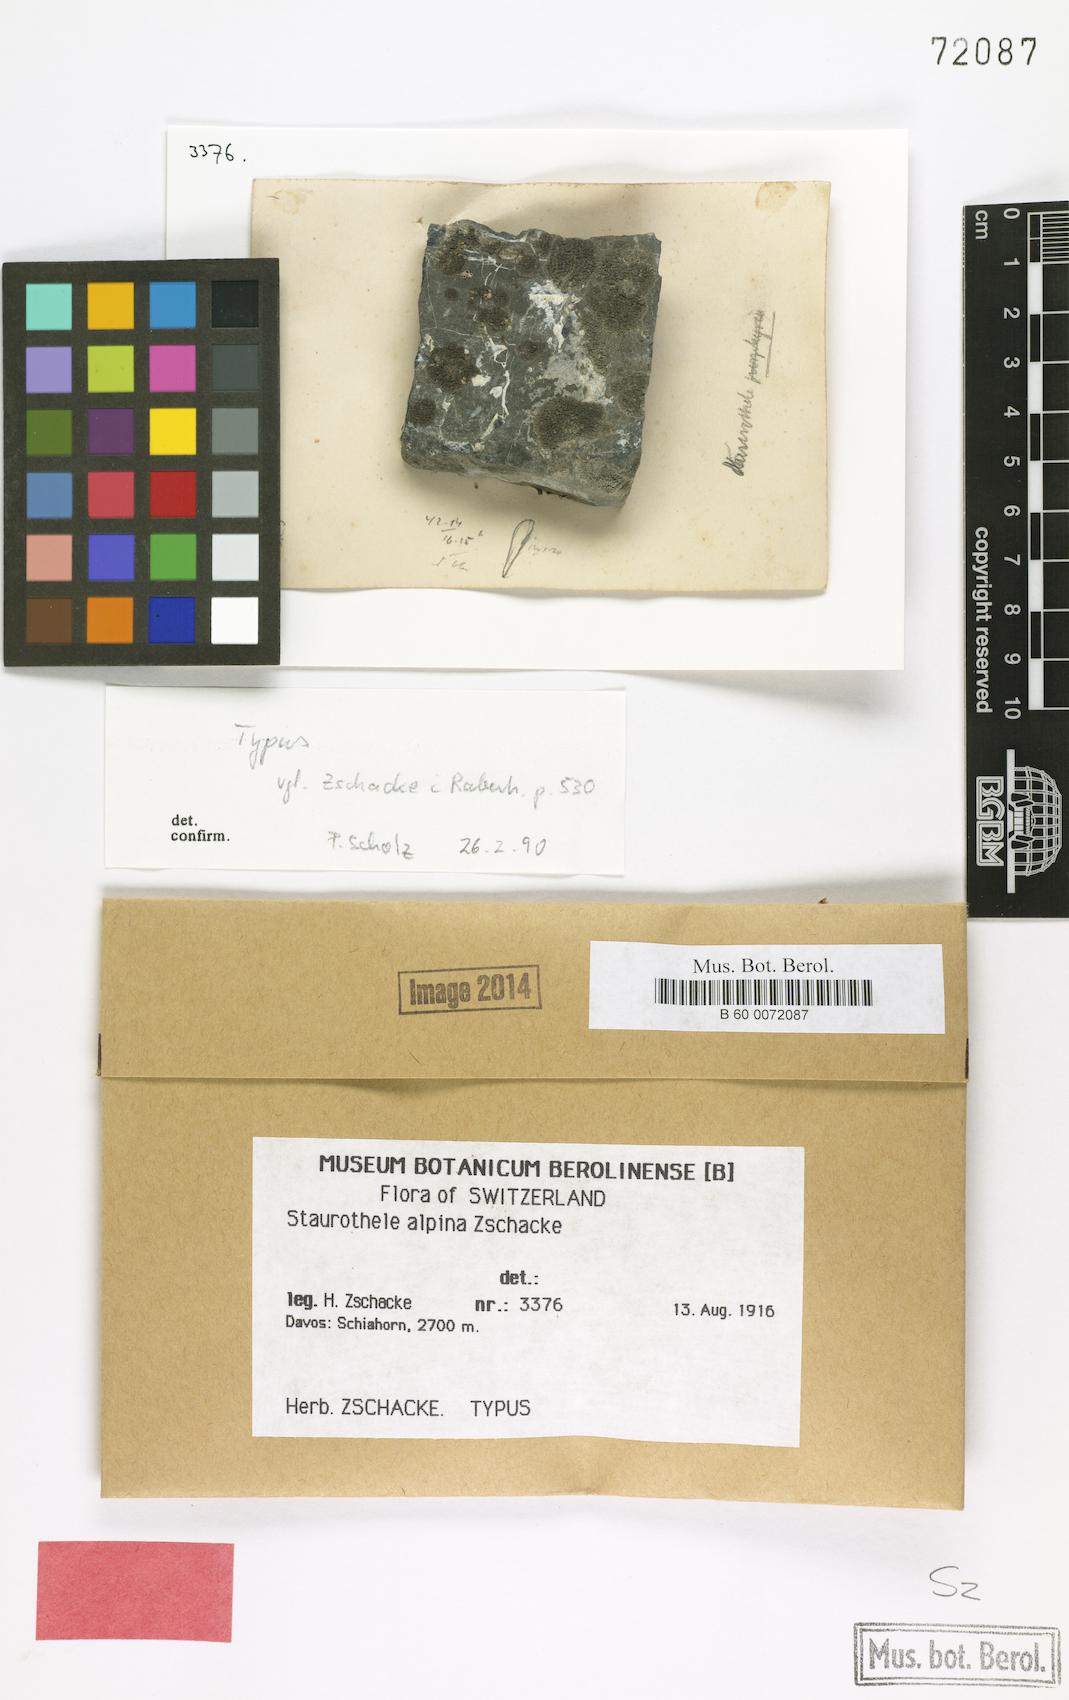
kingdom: Fungi
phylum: Ascomycota
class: Eurotiomycetes
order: Verrucariales
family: Verrucariaceae
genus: Staurothele
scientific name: Staurothele
